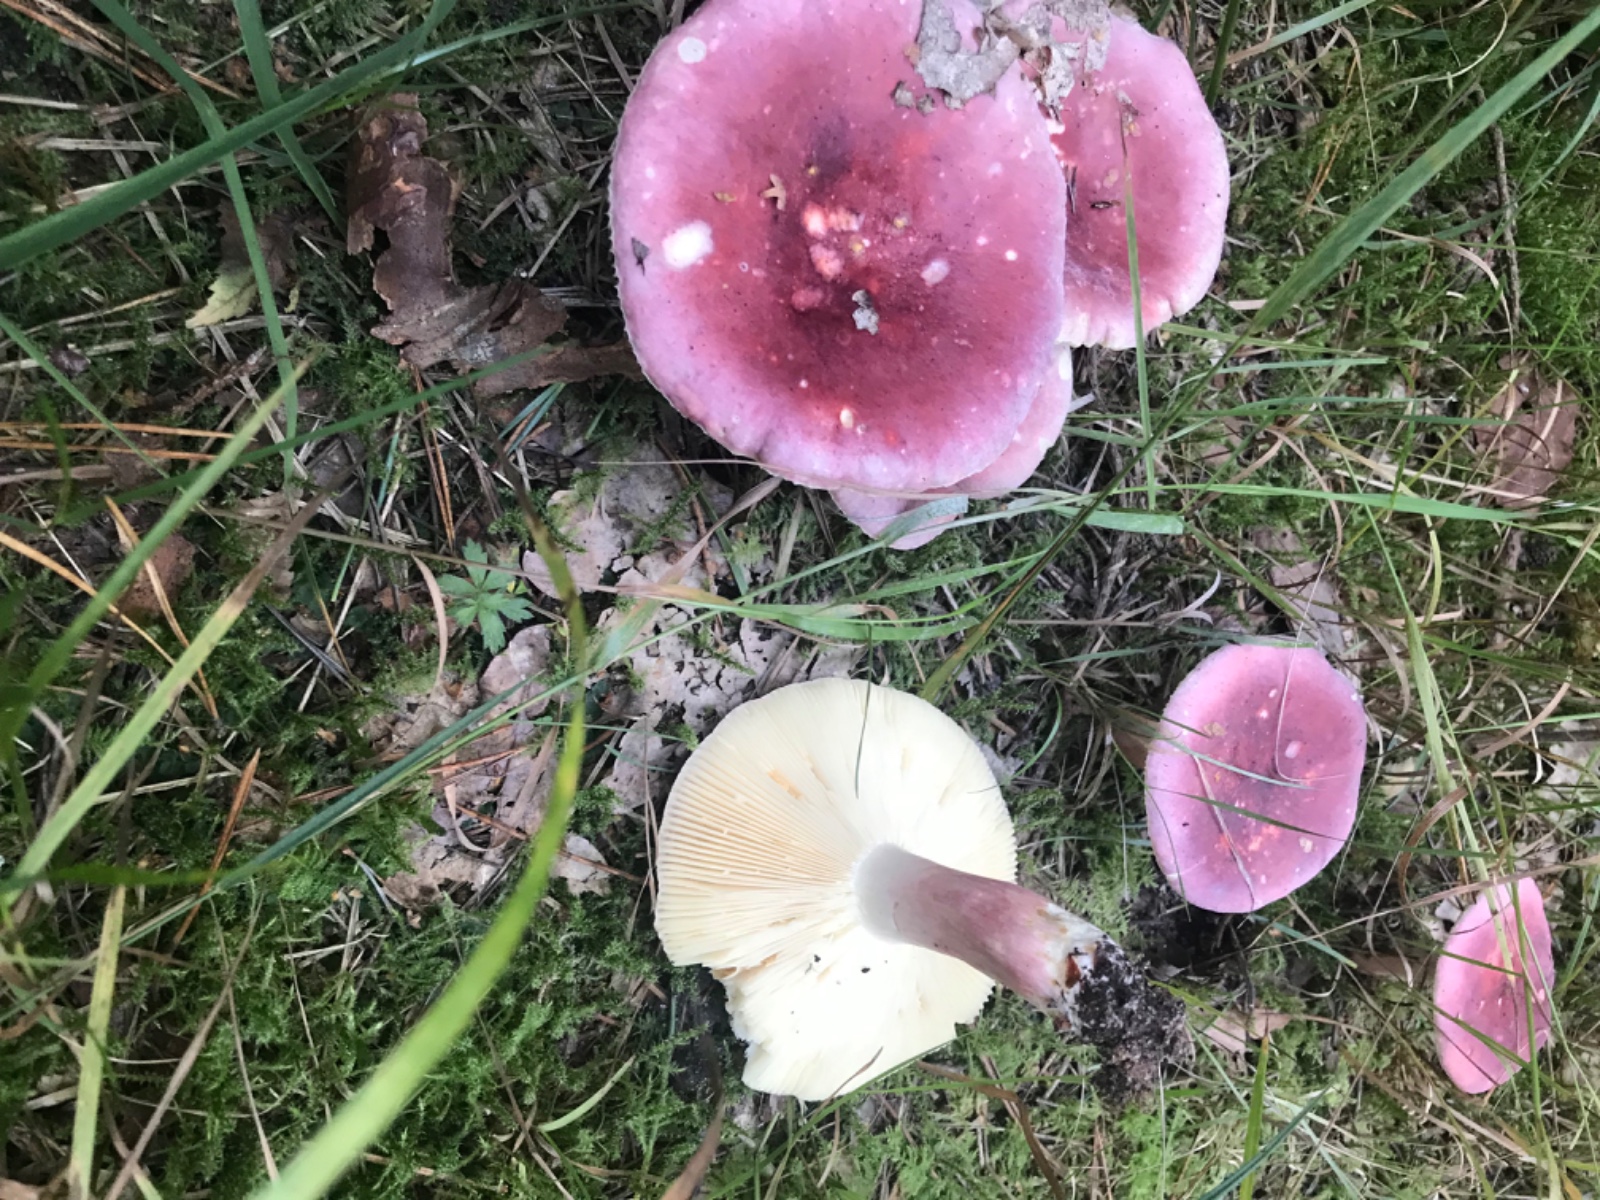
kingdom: Fungi
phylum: Basidiomycota
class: Agaricomycetes
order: Russulales
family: Russulaceae
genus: Russula
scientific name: Russula queletii
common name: Quélets skørhat
